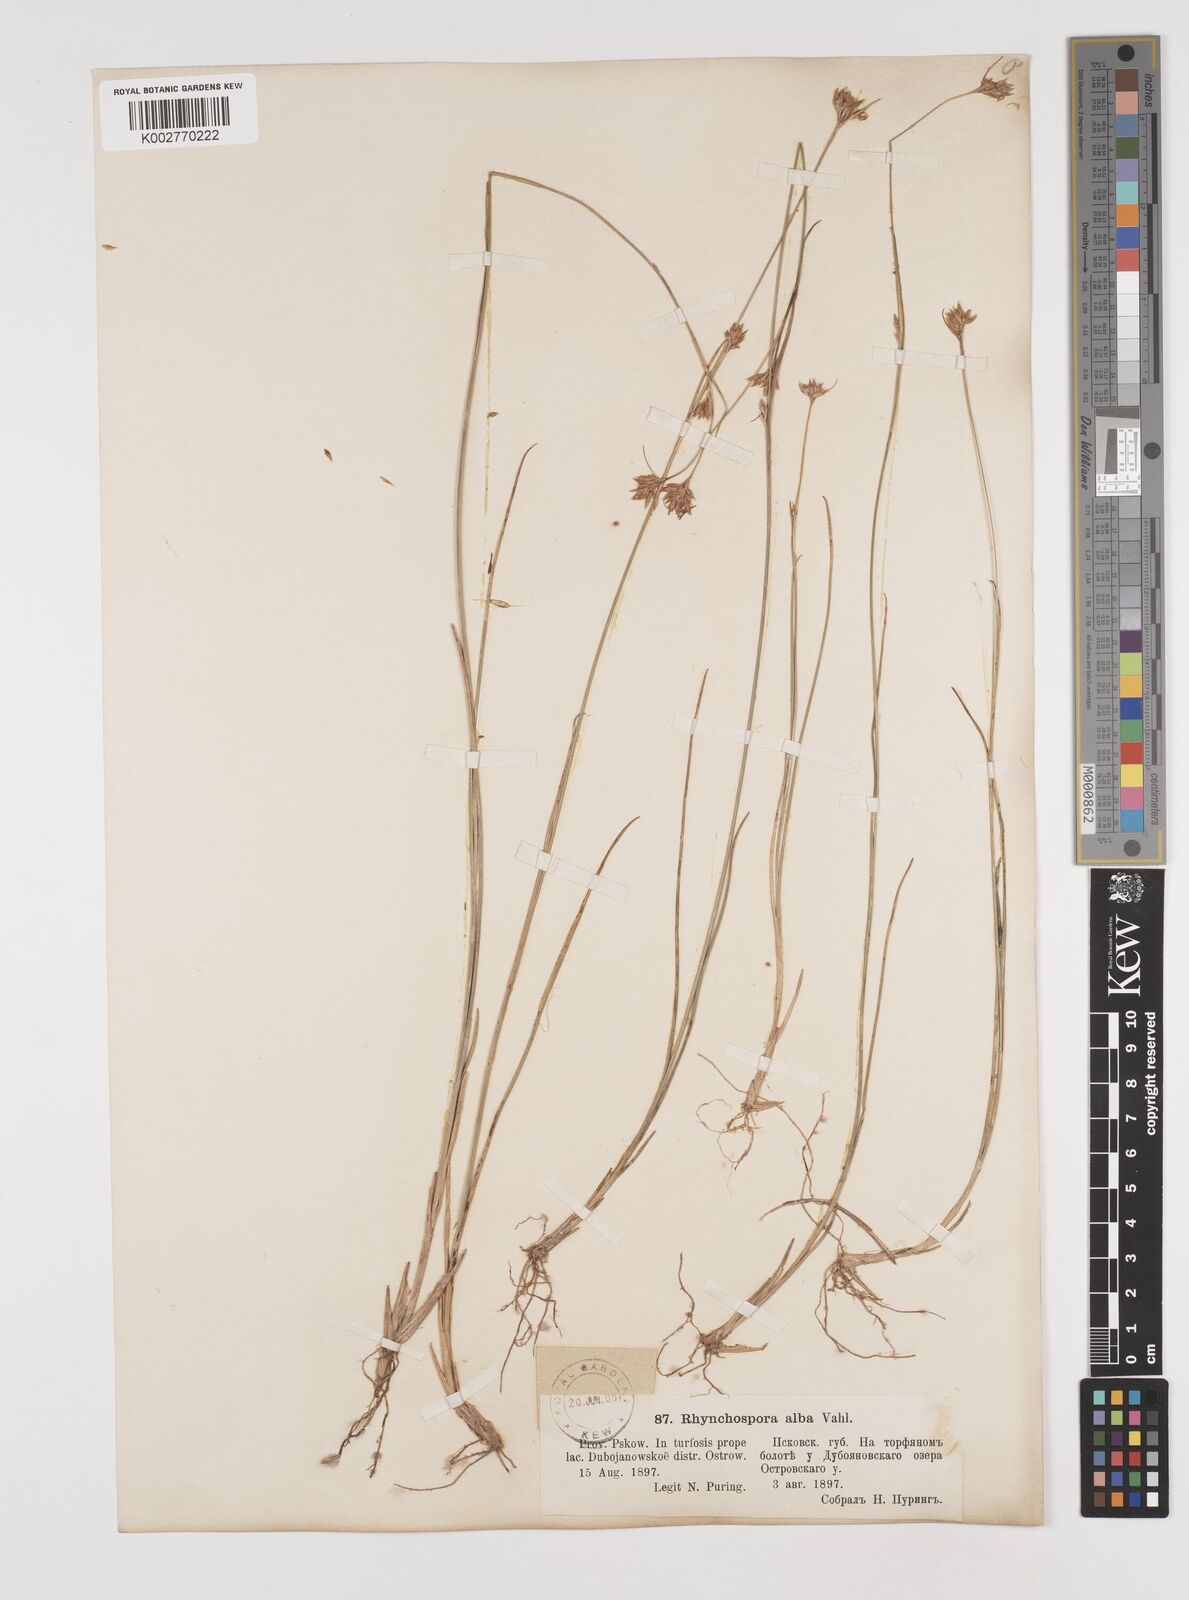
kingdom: Plantae
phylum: Tracheophyta
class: Liliopsida
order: Poales
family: Cyperaceae
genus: Rhynchospora
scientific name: Rhynchospora alba
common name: White beak-sedge
